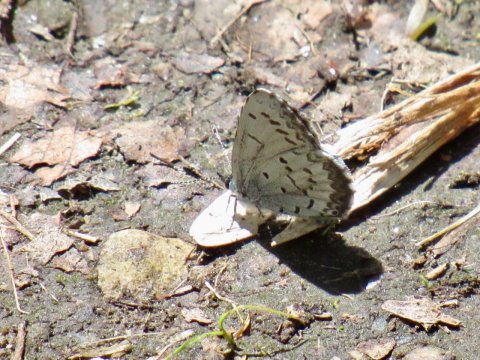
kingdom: Animalia
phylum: Arthropoda
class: Insecta
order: Lepidoptera
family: Lycaenidae
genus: Celastrina
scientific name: Celastrina lucia
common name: Northern Spring Azure
